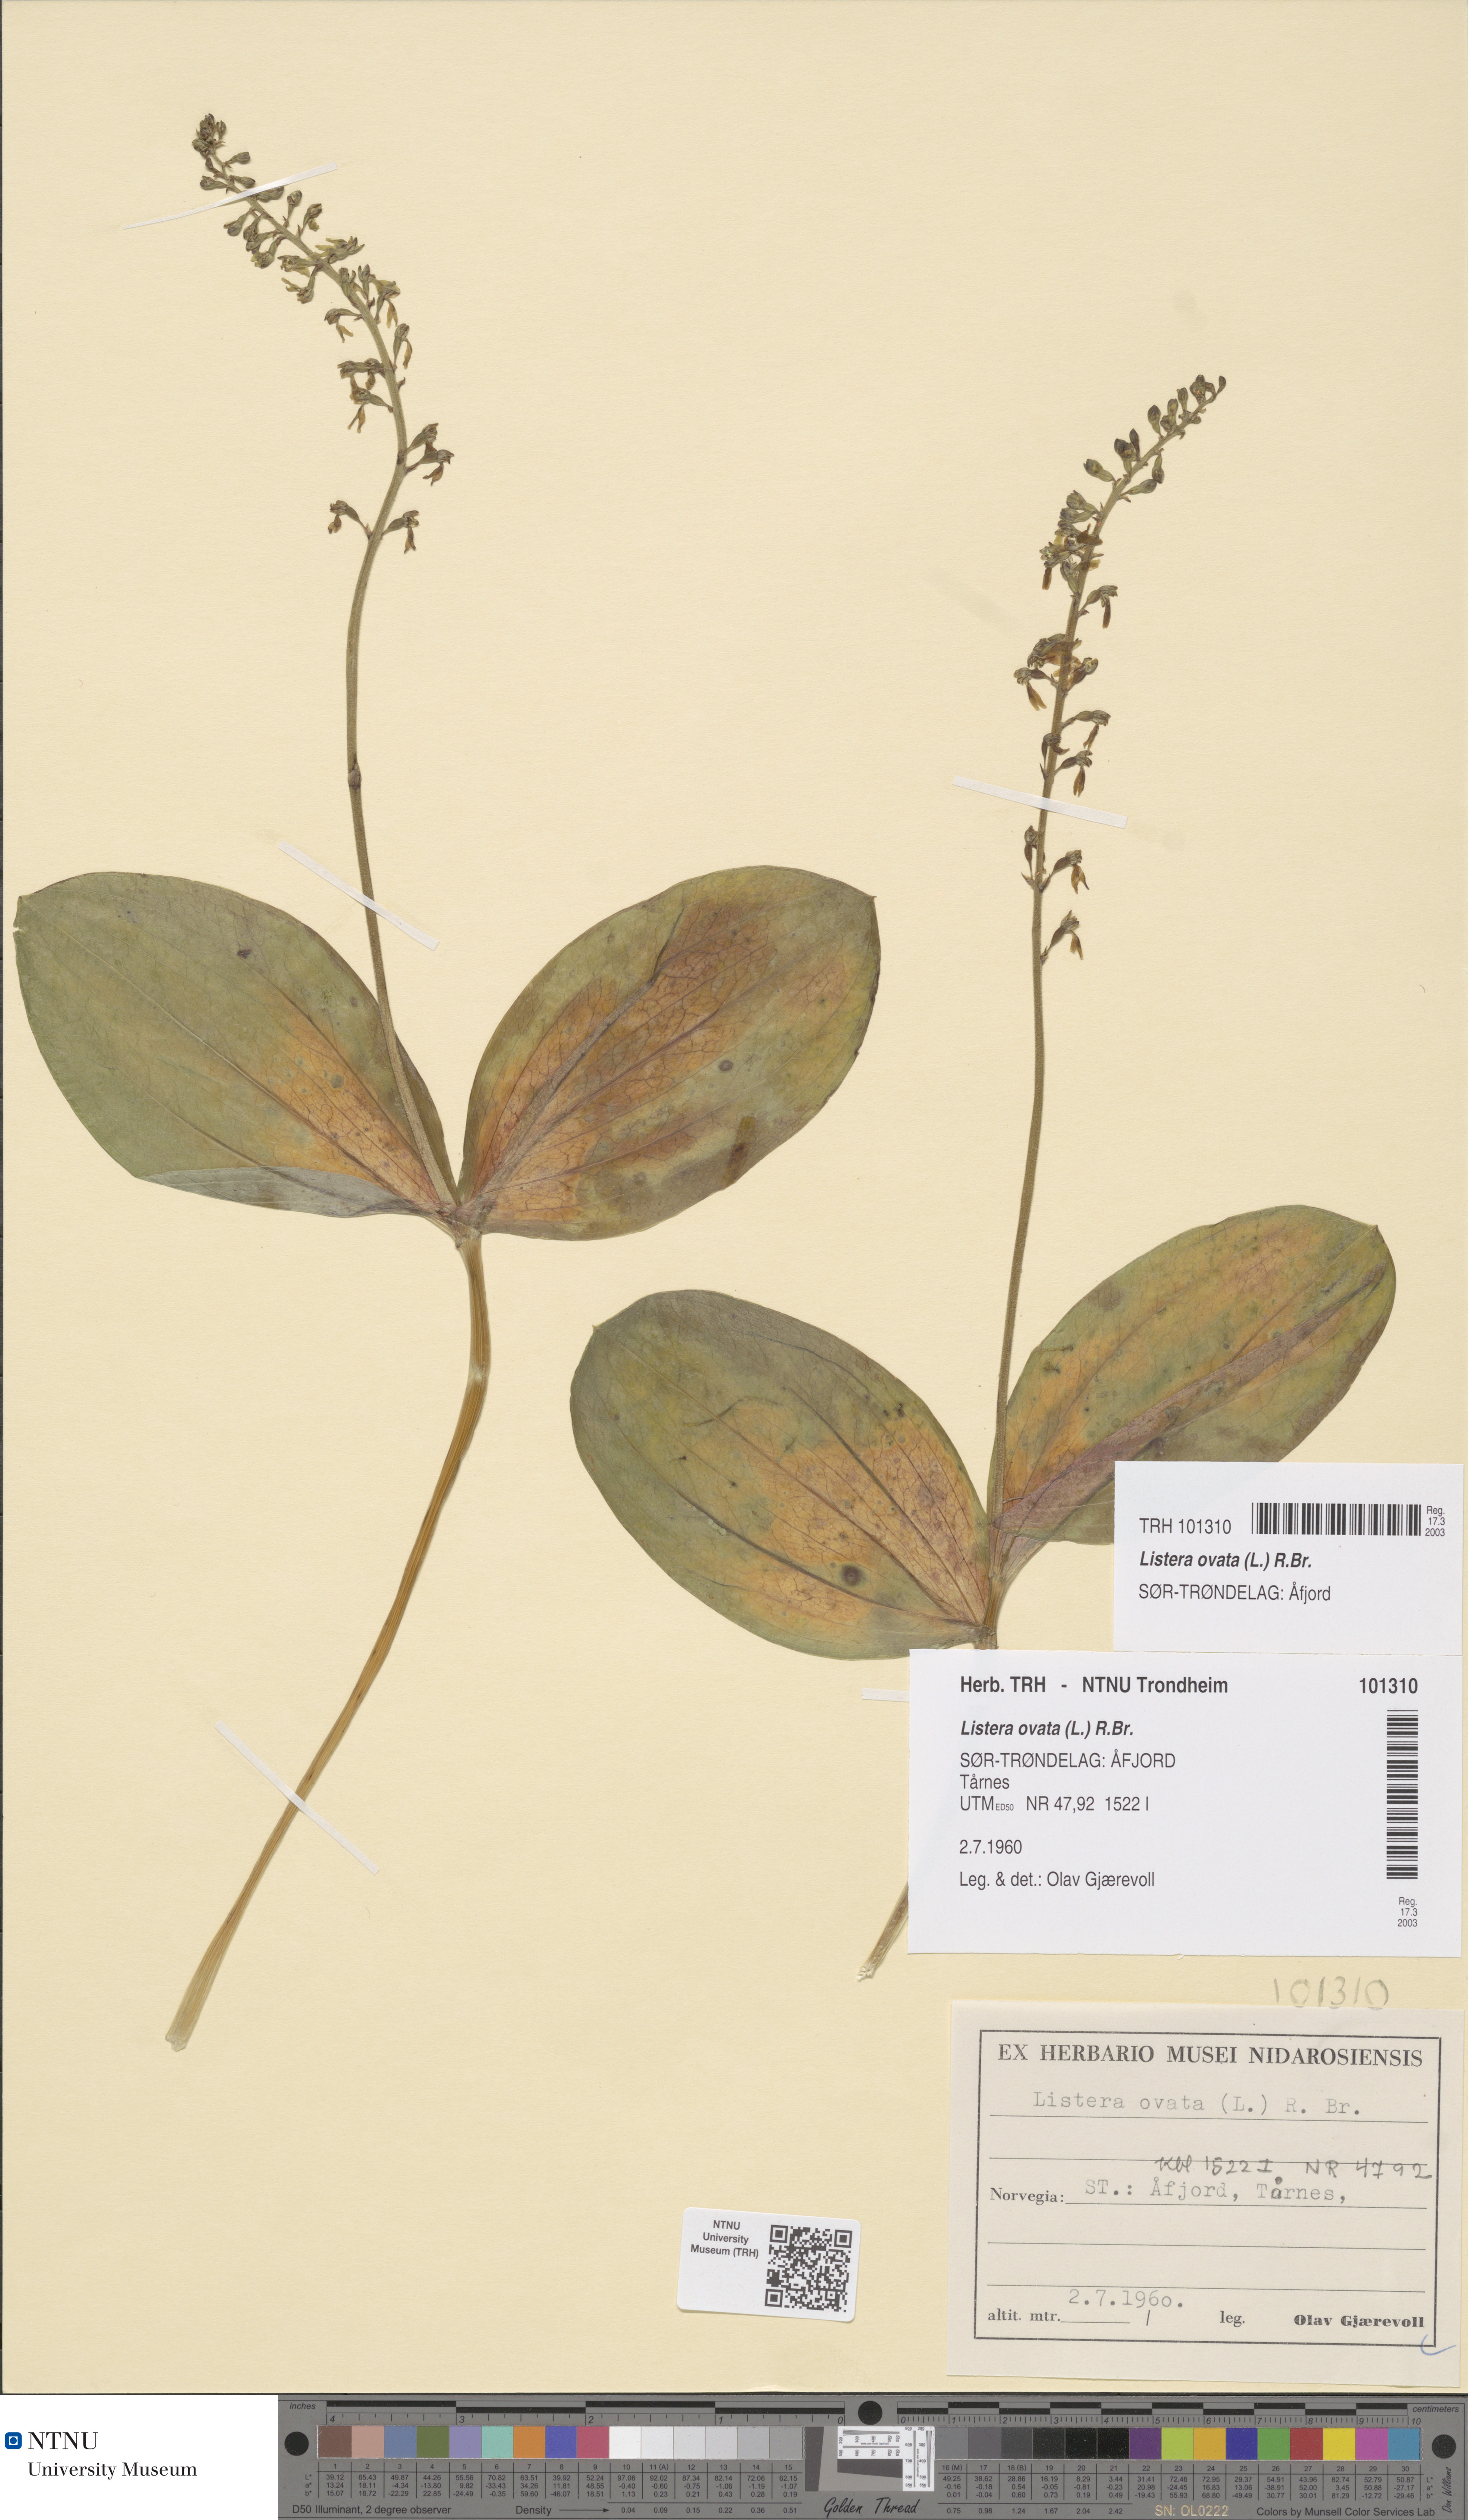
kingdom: Plantae
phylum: Tracheophyta
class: Liliopsida
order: Asparagales
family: Orchidaceae
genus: Neottia
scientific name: Neottia ovata
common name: Common twayblade
